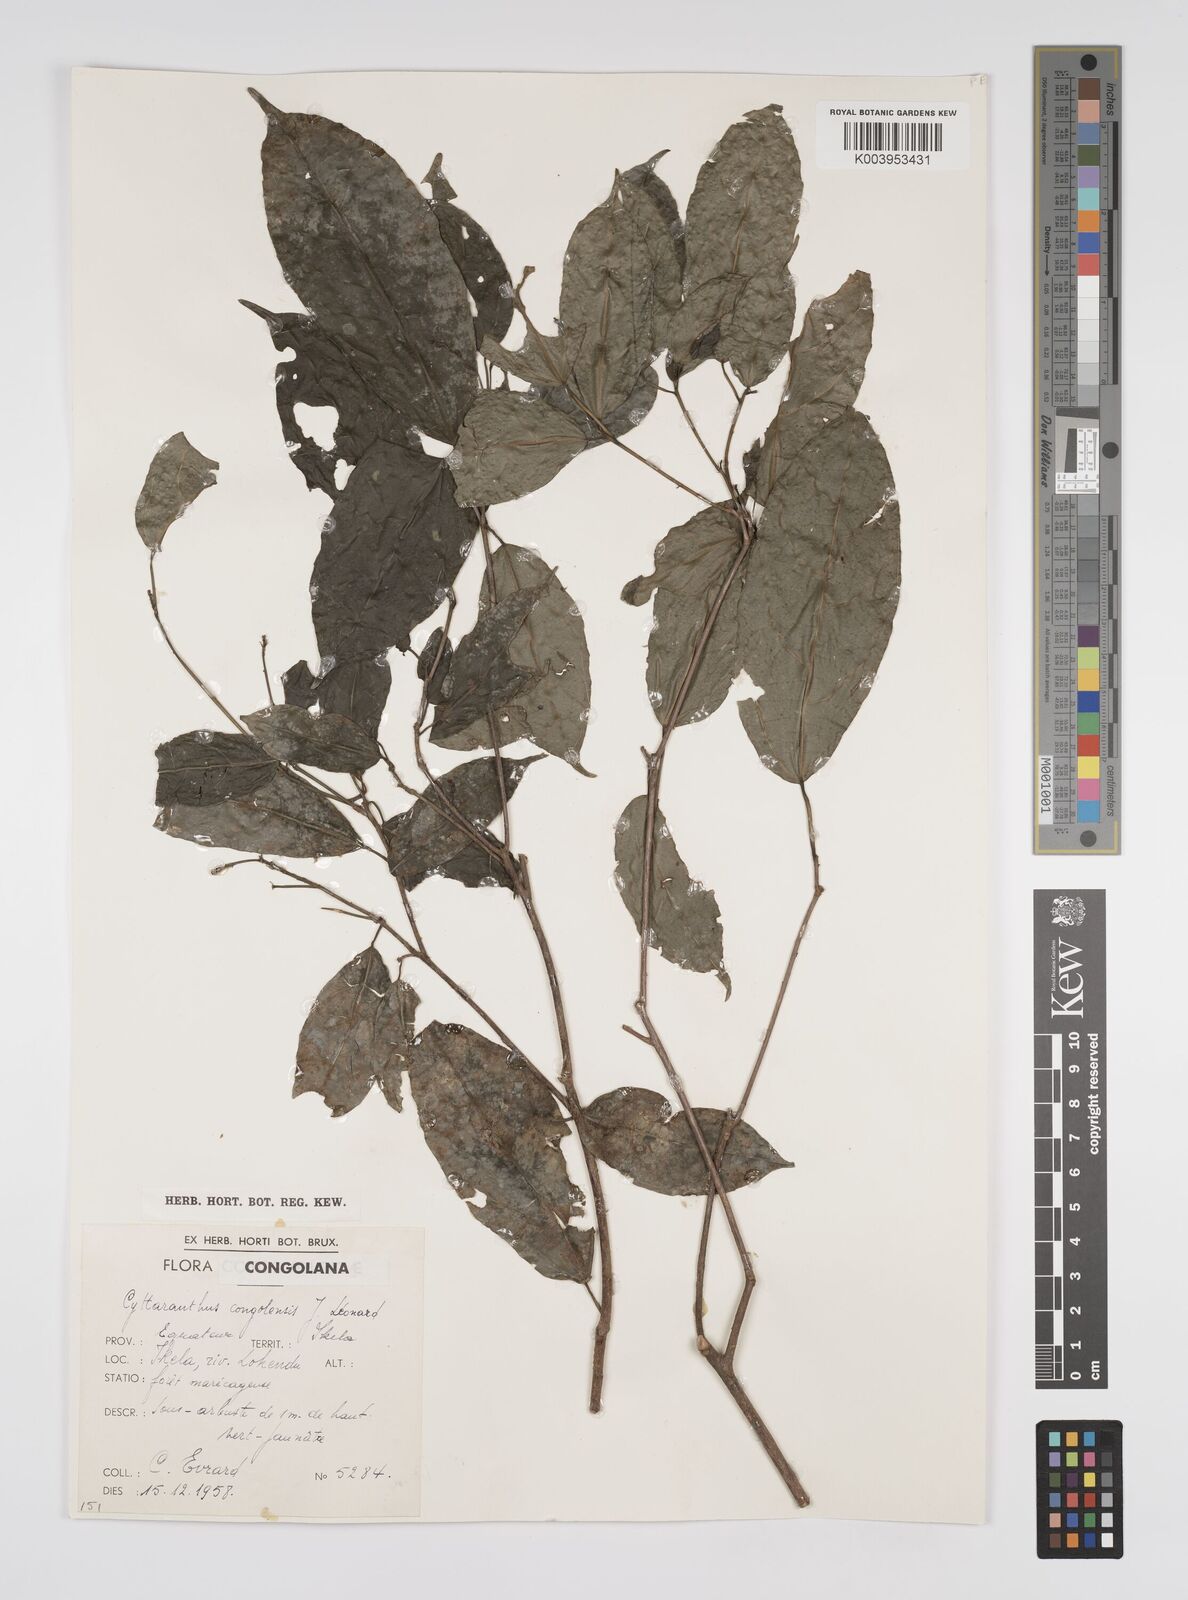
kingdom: Plantae
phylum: Tracheophyta
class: Magnoliopsida
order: Malpighiales
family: Euphorbiaceae
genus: Cyttaranthus
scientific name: Cyttaranthus congolensis
